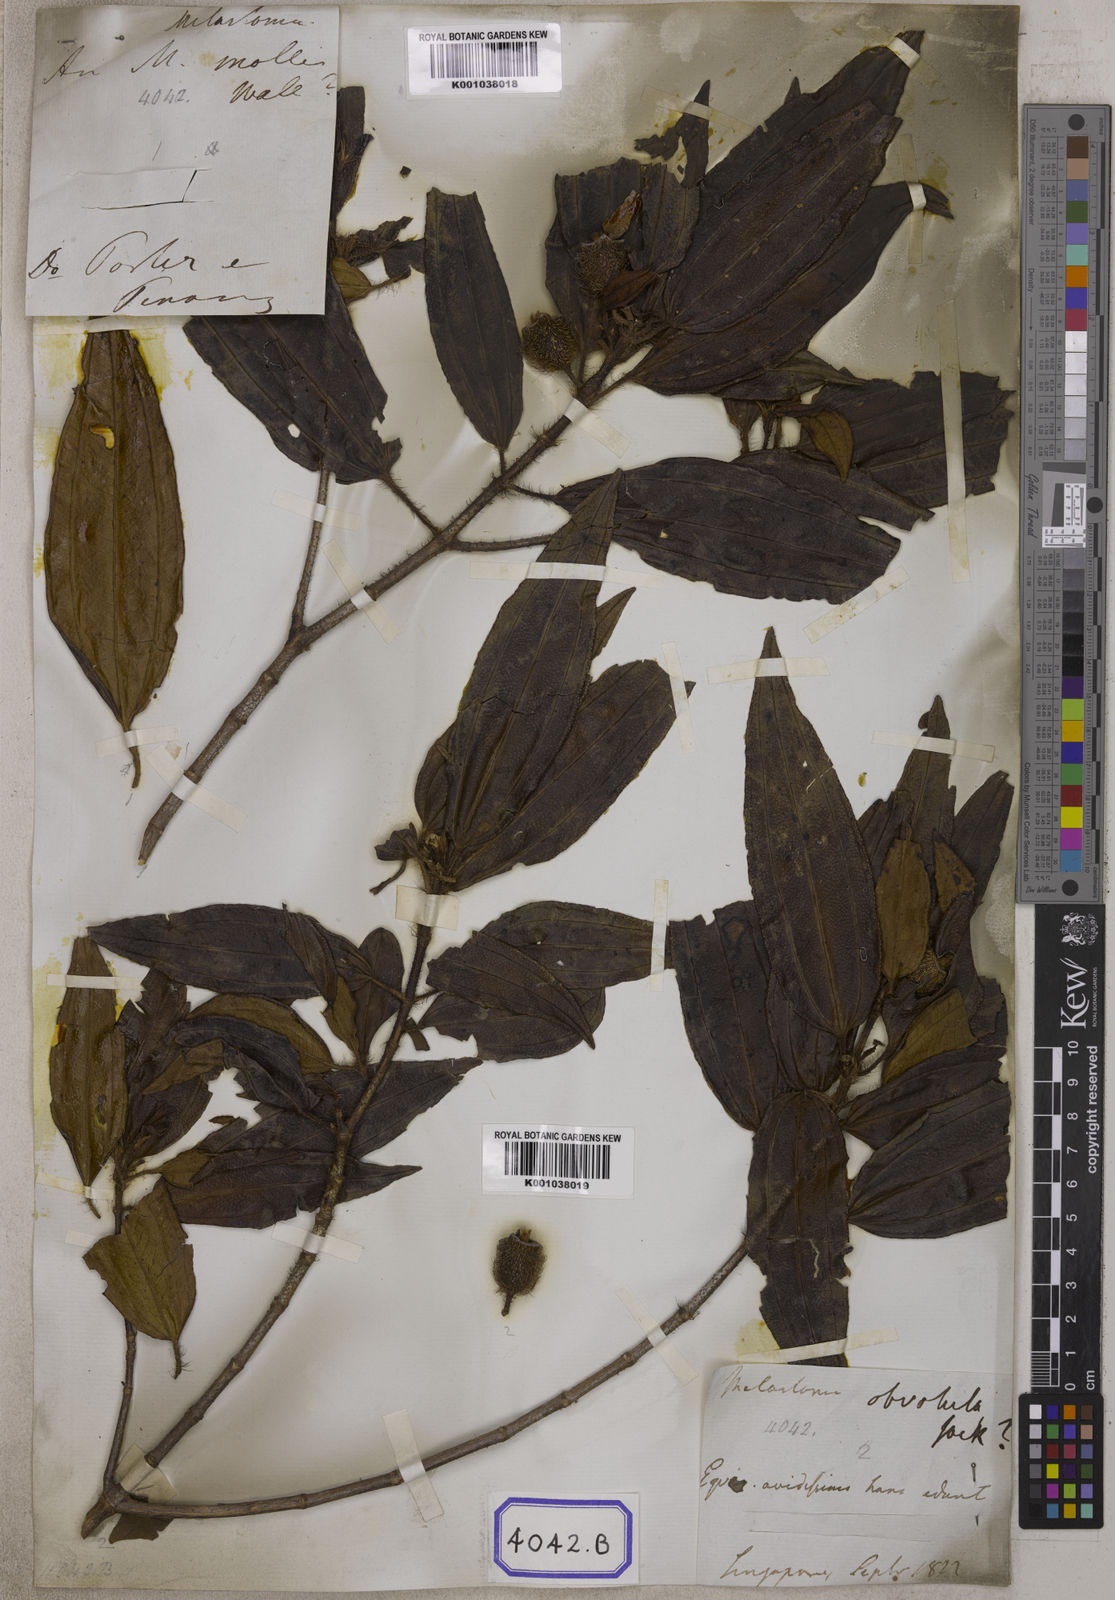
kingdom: Plantae
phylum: Tracheophyta
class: Magnoliopsida
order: Myrtales
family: Melastomataceae
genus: Melastoma
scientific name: Melastoma sanguineum
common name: Red melastome
